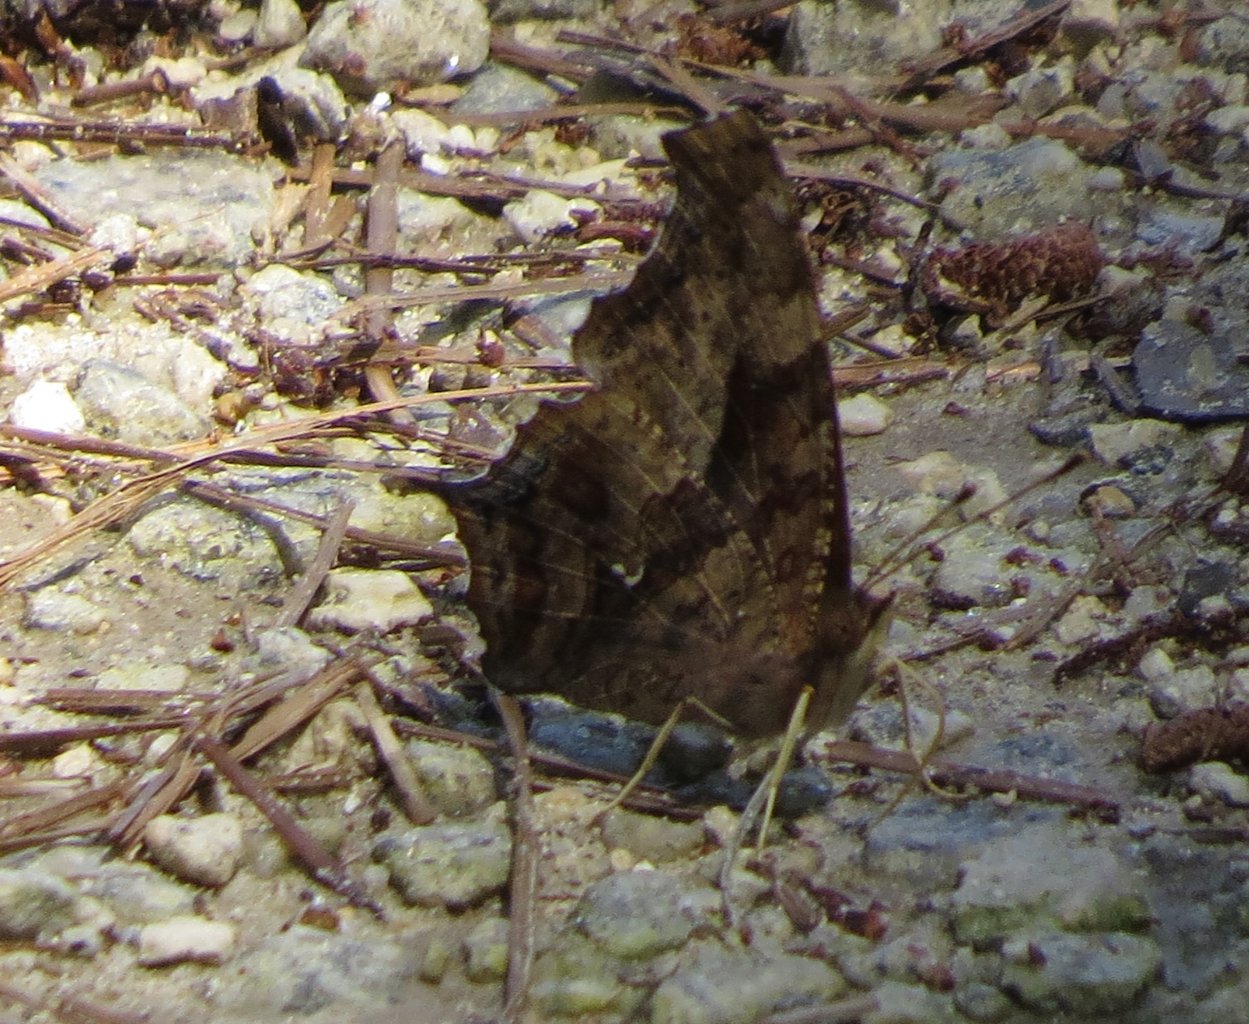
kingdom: Animalia
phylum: Arthropoda
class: Insecta
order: Lepidoptera
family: Nymphalidae
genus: Polygonia
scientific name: Polygonia interrogationis
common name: Question Mark
